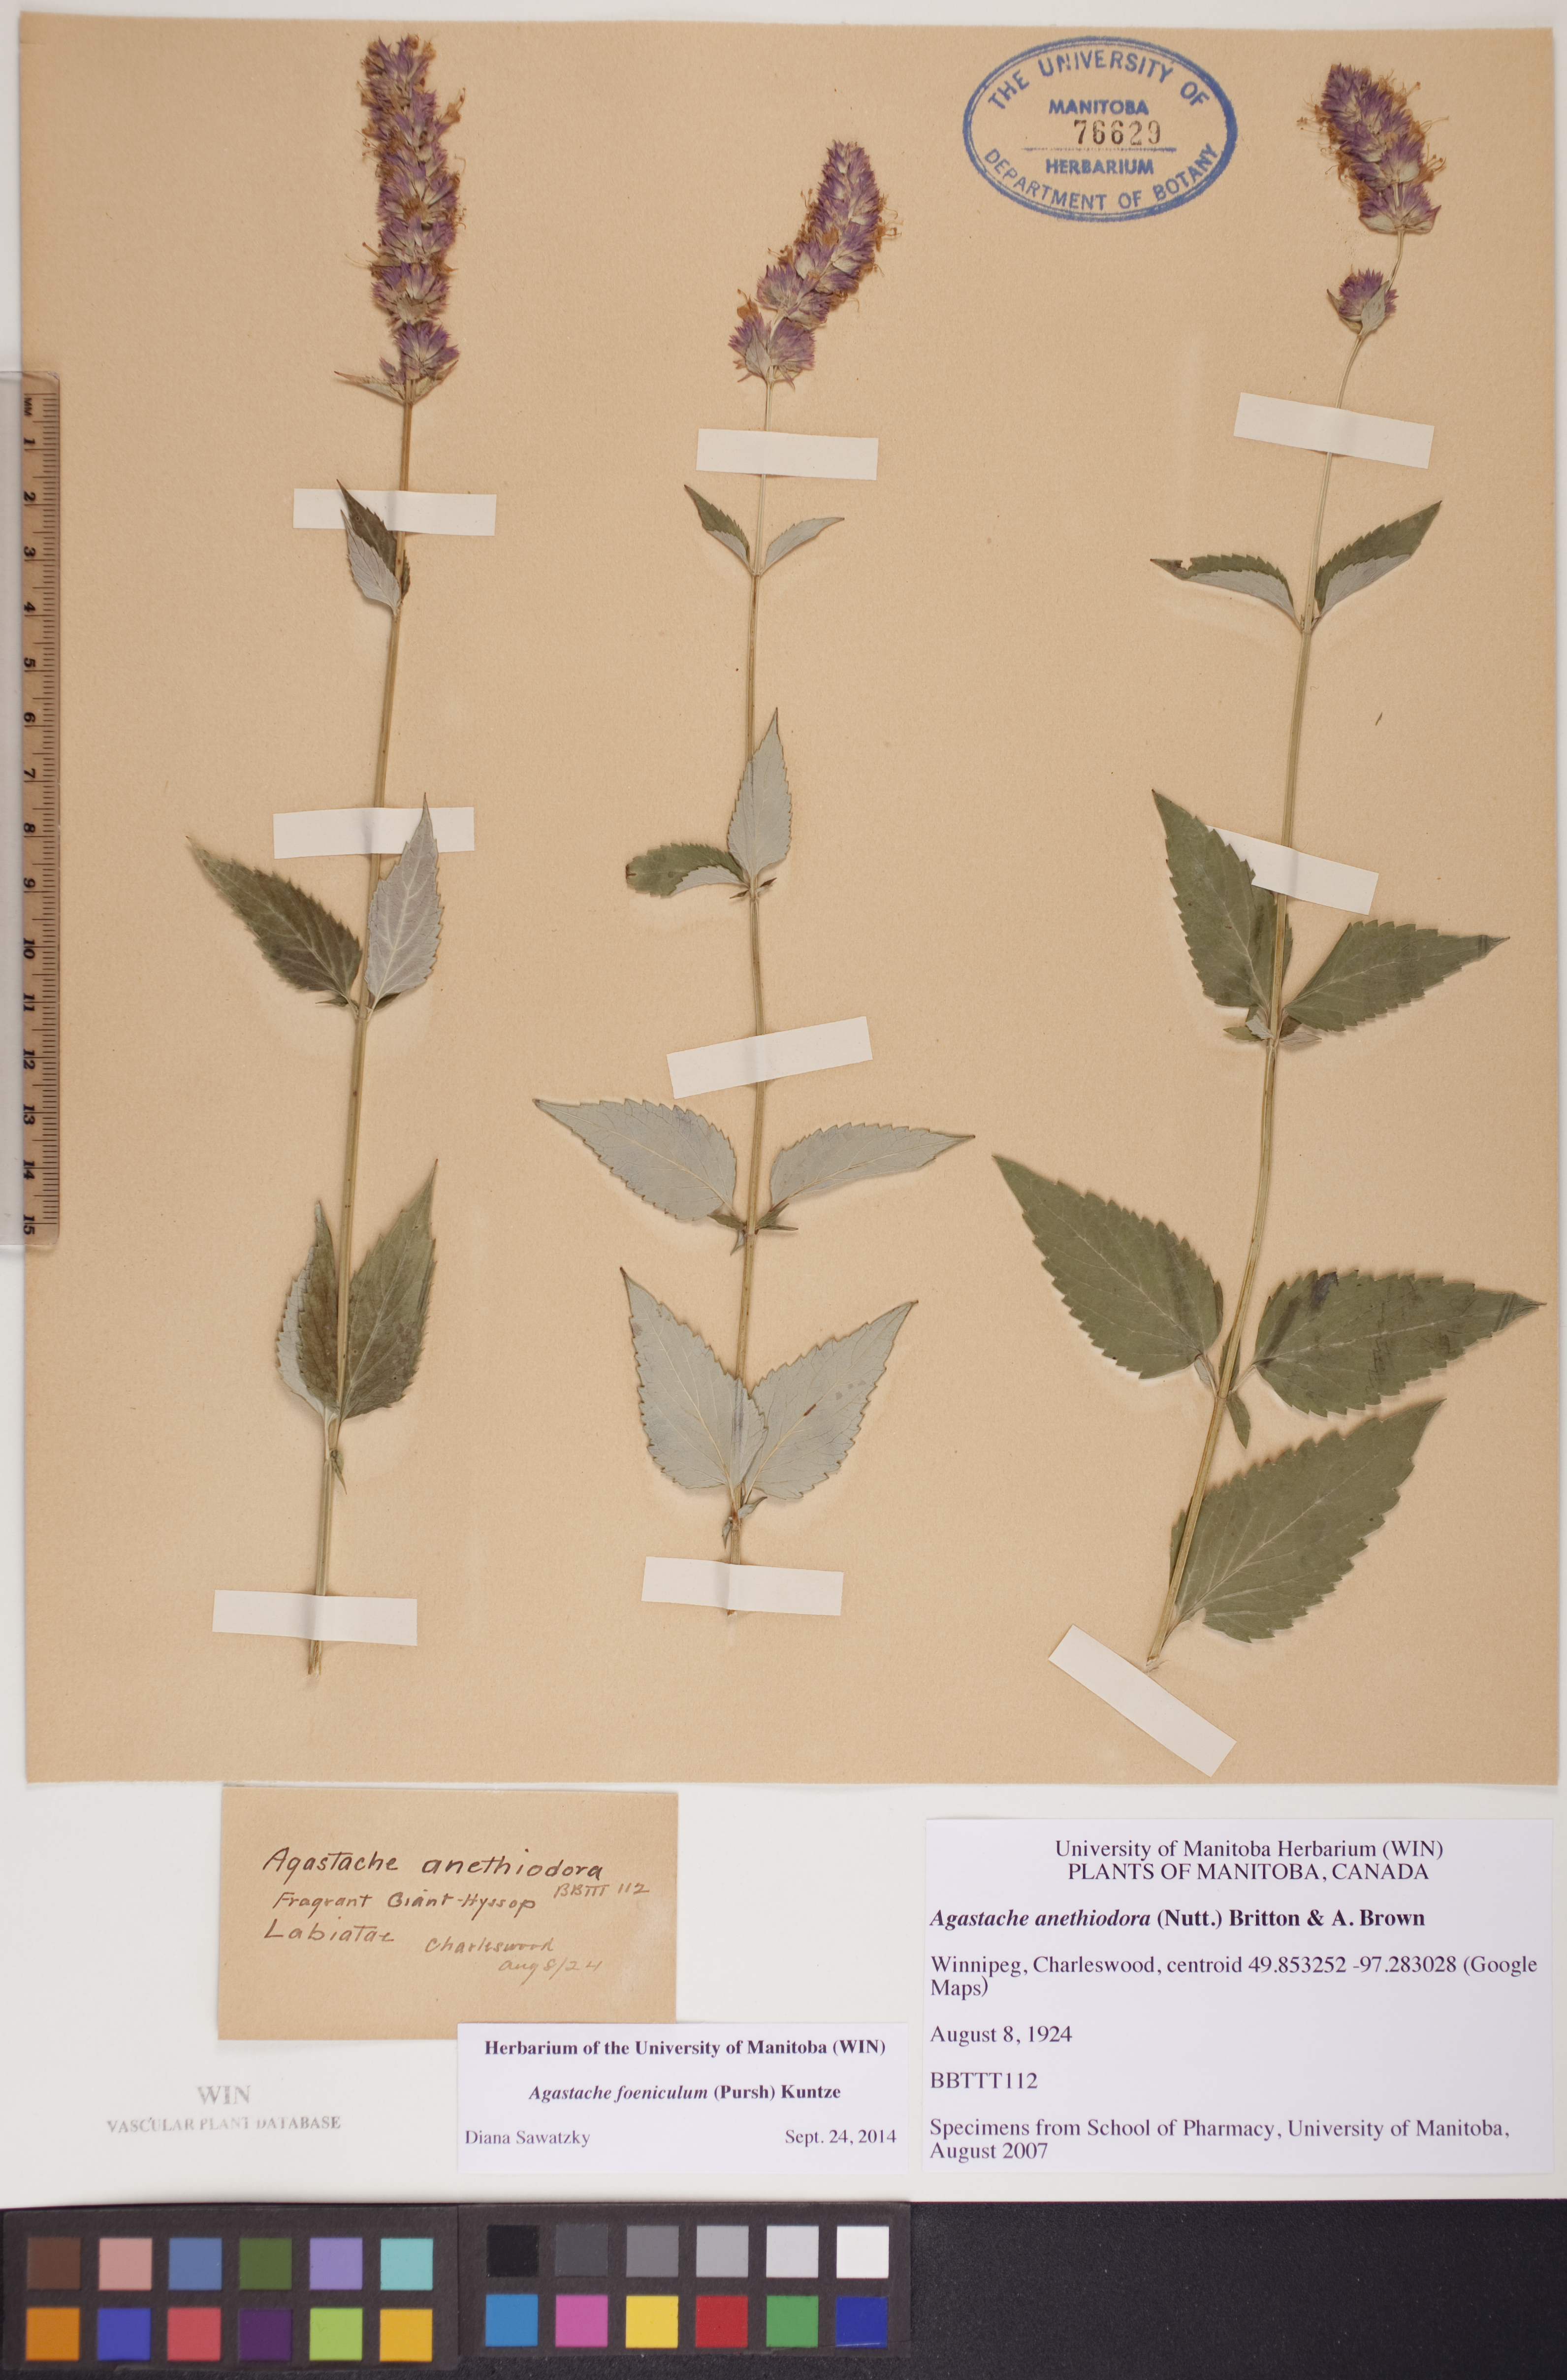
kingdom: Plantae
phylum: Tracheophyta
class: Magnoliopsida
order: Lamiales
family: Lamiaceae
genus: Agastache
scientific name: Agastache foeniculum
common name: Anise hyssop
